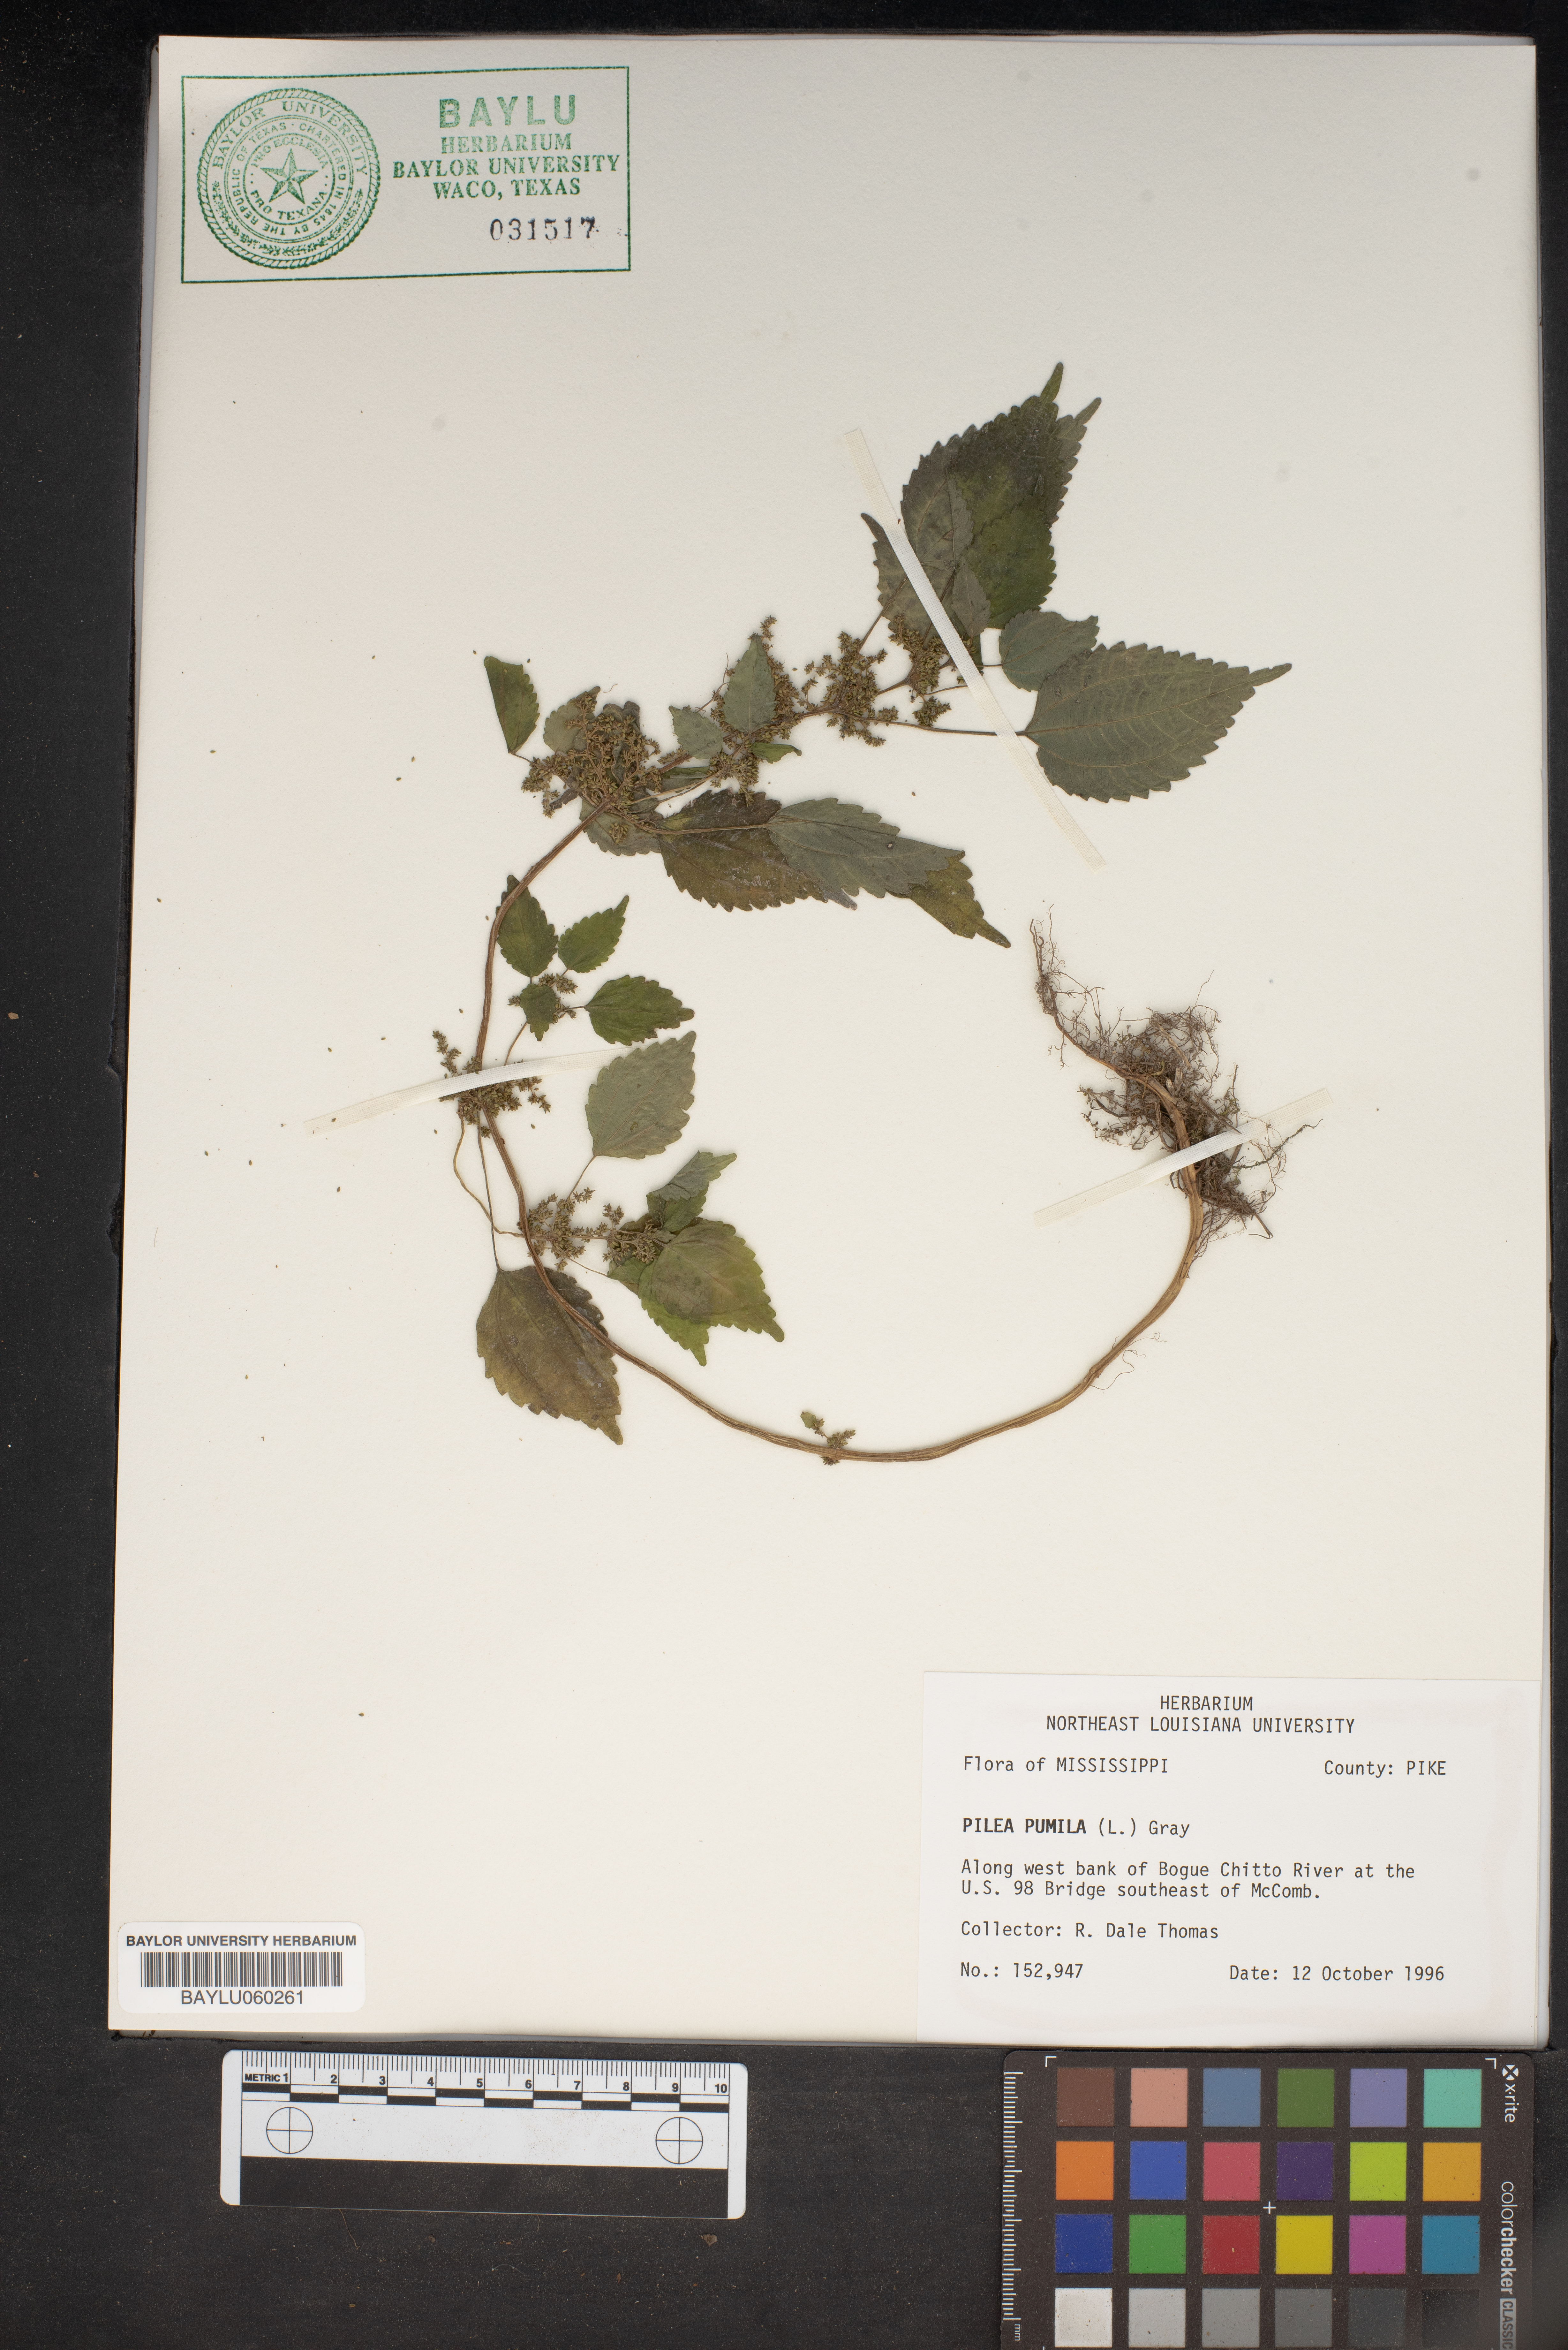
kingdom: Plantae
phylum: Tracheophyta
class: Magnoliopsida
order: Rosales
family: Urticaceae
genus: Pilea
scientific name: Pilea pumila
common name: Clearweed
